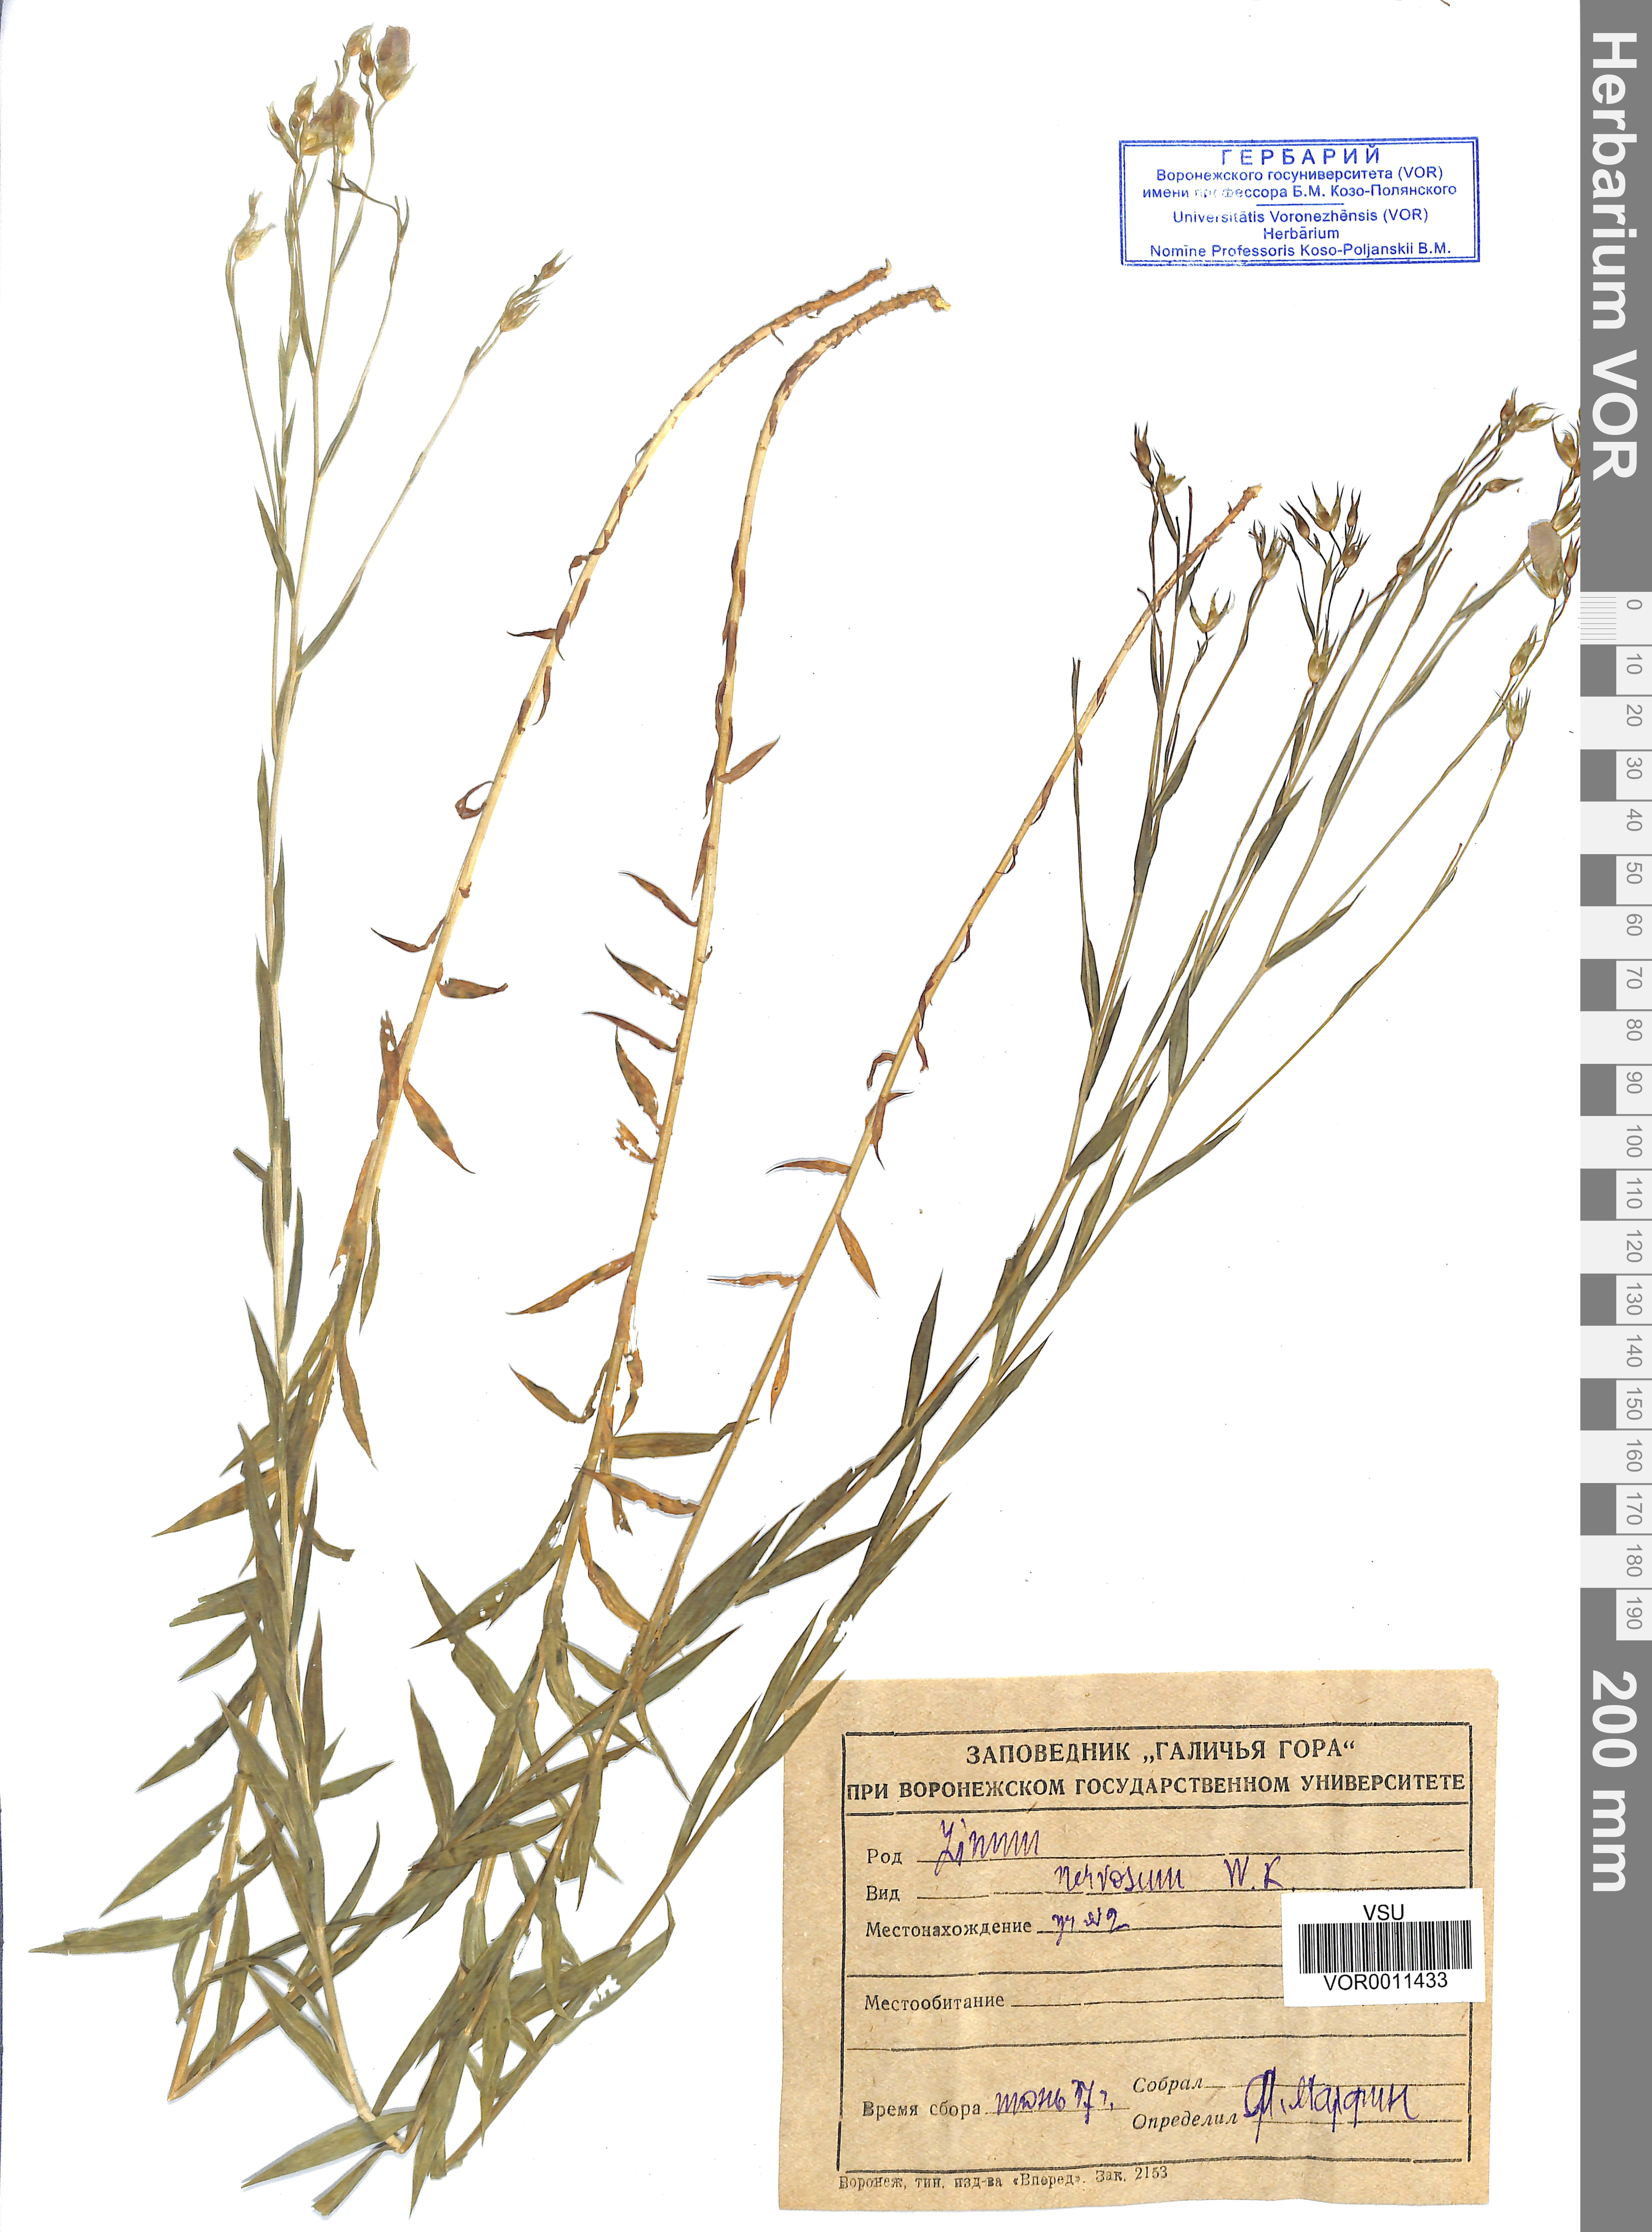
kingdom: Plantae
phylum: Tracheophyta
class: Magnoliopsida
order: Malpighiales
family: Linaceae
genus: Linum
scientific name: Linum nervosum
